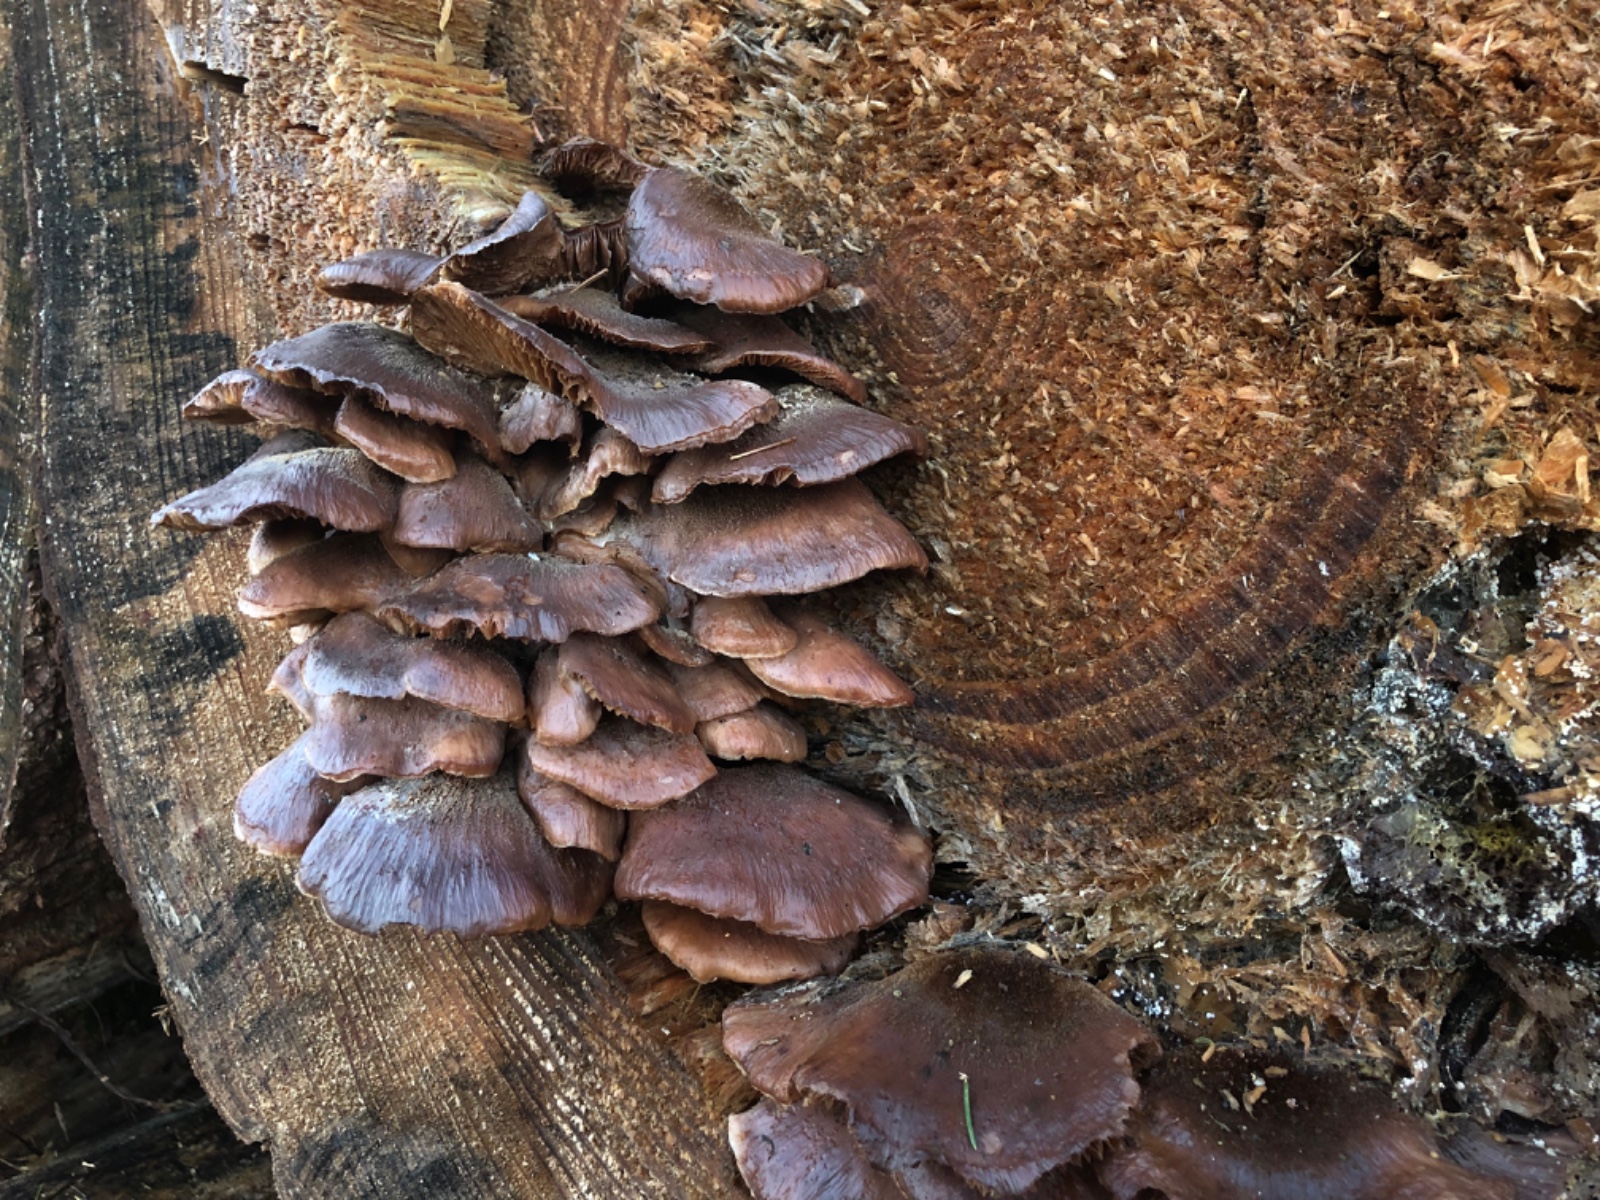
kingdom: Fungi
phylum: Basidiomycota
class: Agaricomycetes
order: Russulales
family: Auriscalpiaceae
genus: Lentinellus
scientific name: Lentinellus ursinus
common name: børstehåret savbladhat
